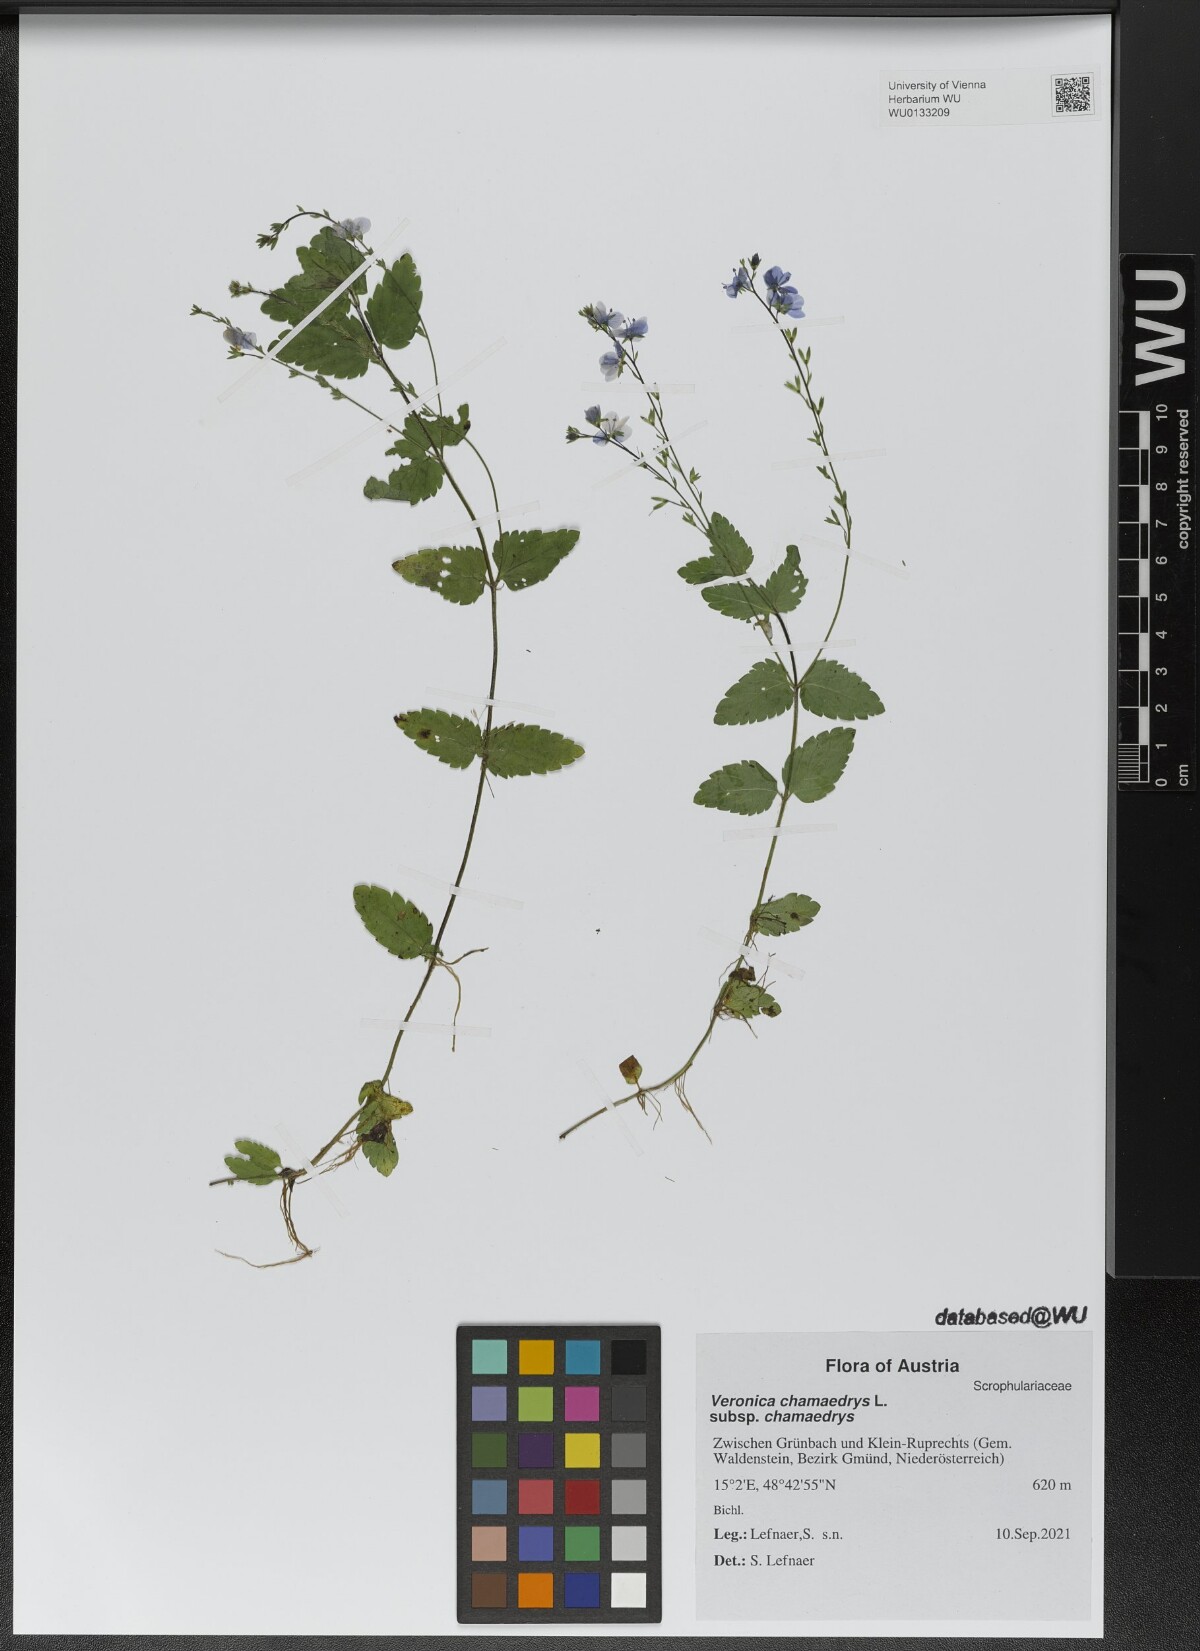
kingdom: Plantae
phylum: Tracheophyta
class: Magnoliopsida
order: Lamiales
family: Plantaginaceae
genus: Veronica
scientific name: Veronica chamaedrys
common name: Germander speedwell
